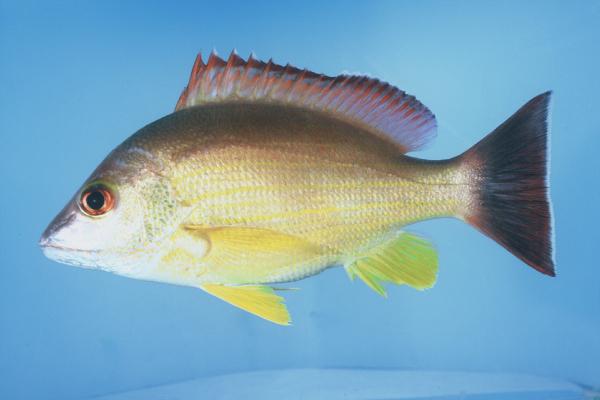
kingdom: Animalia
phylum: Chordata
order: Perciformes
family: Lutjanidae
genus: Lutjanus
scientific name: Lutjanus fulvus
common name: Blacktail snapper
